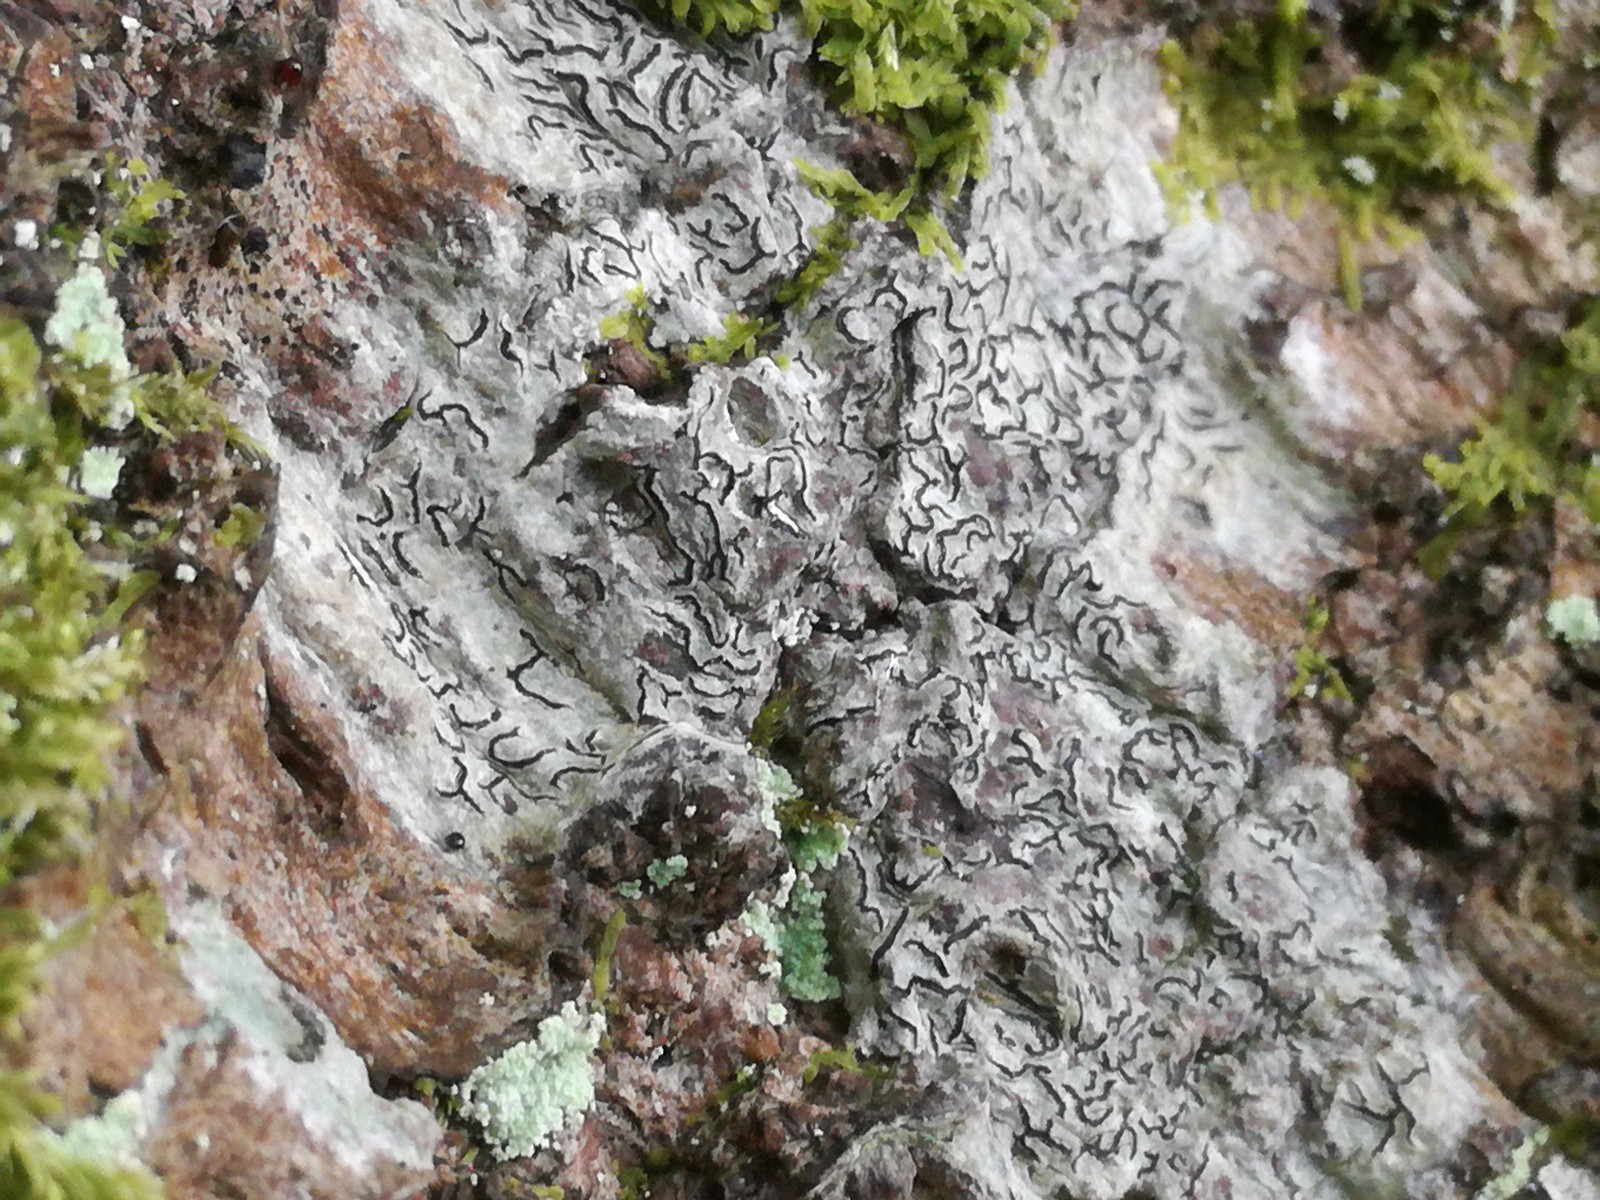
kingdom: Fungi
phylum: Ascomycota
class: Lecanoromycetes
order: Ostropales
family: Graphidaceae
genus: Graphis
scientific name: Graphis scripta
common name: almindelig skriftlav
